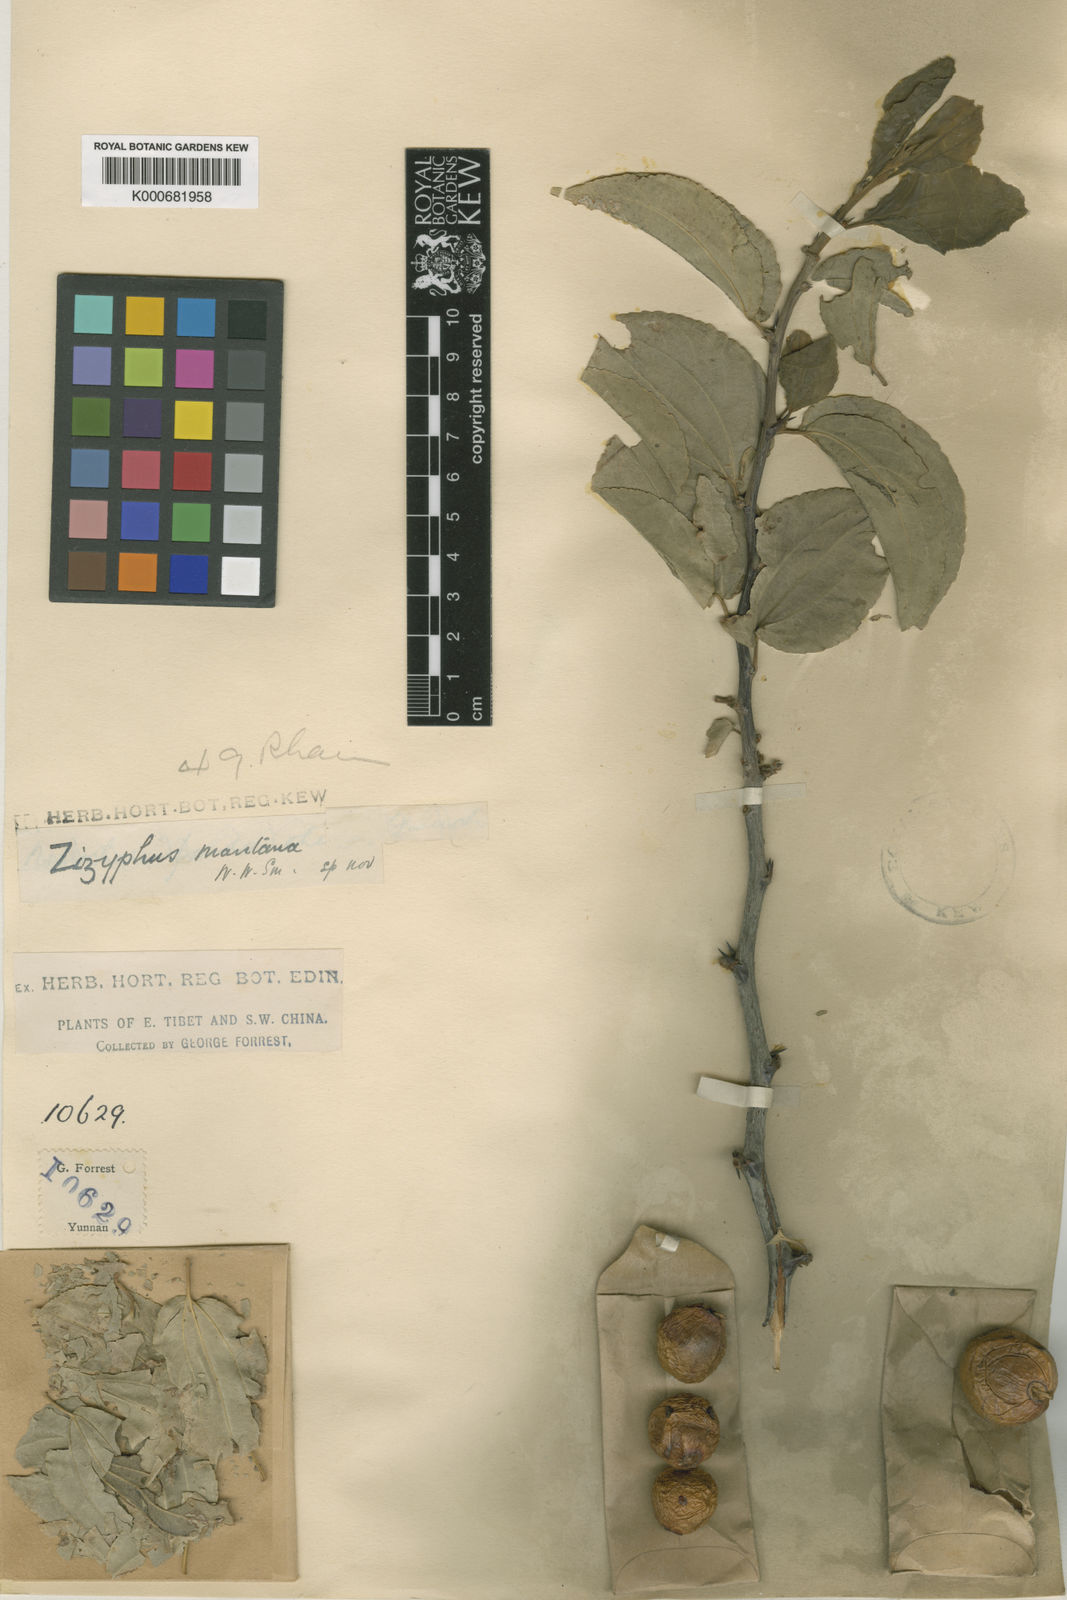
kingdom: Plantae
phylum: Tracheophyta
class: Magnoliopsida
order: Rosales
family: Rhamnaceae
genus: Ziziphus
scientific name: Ziziphus montana
